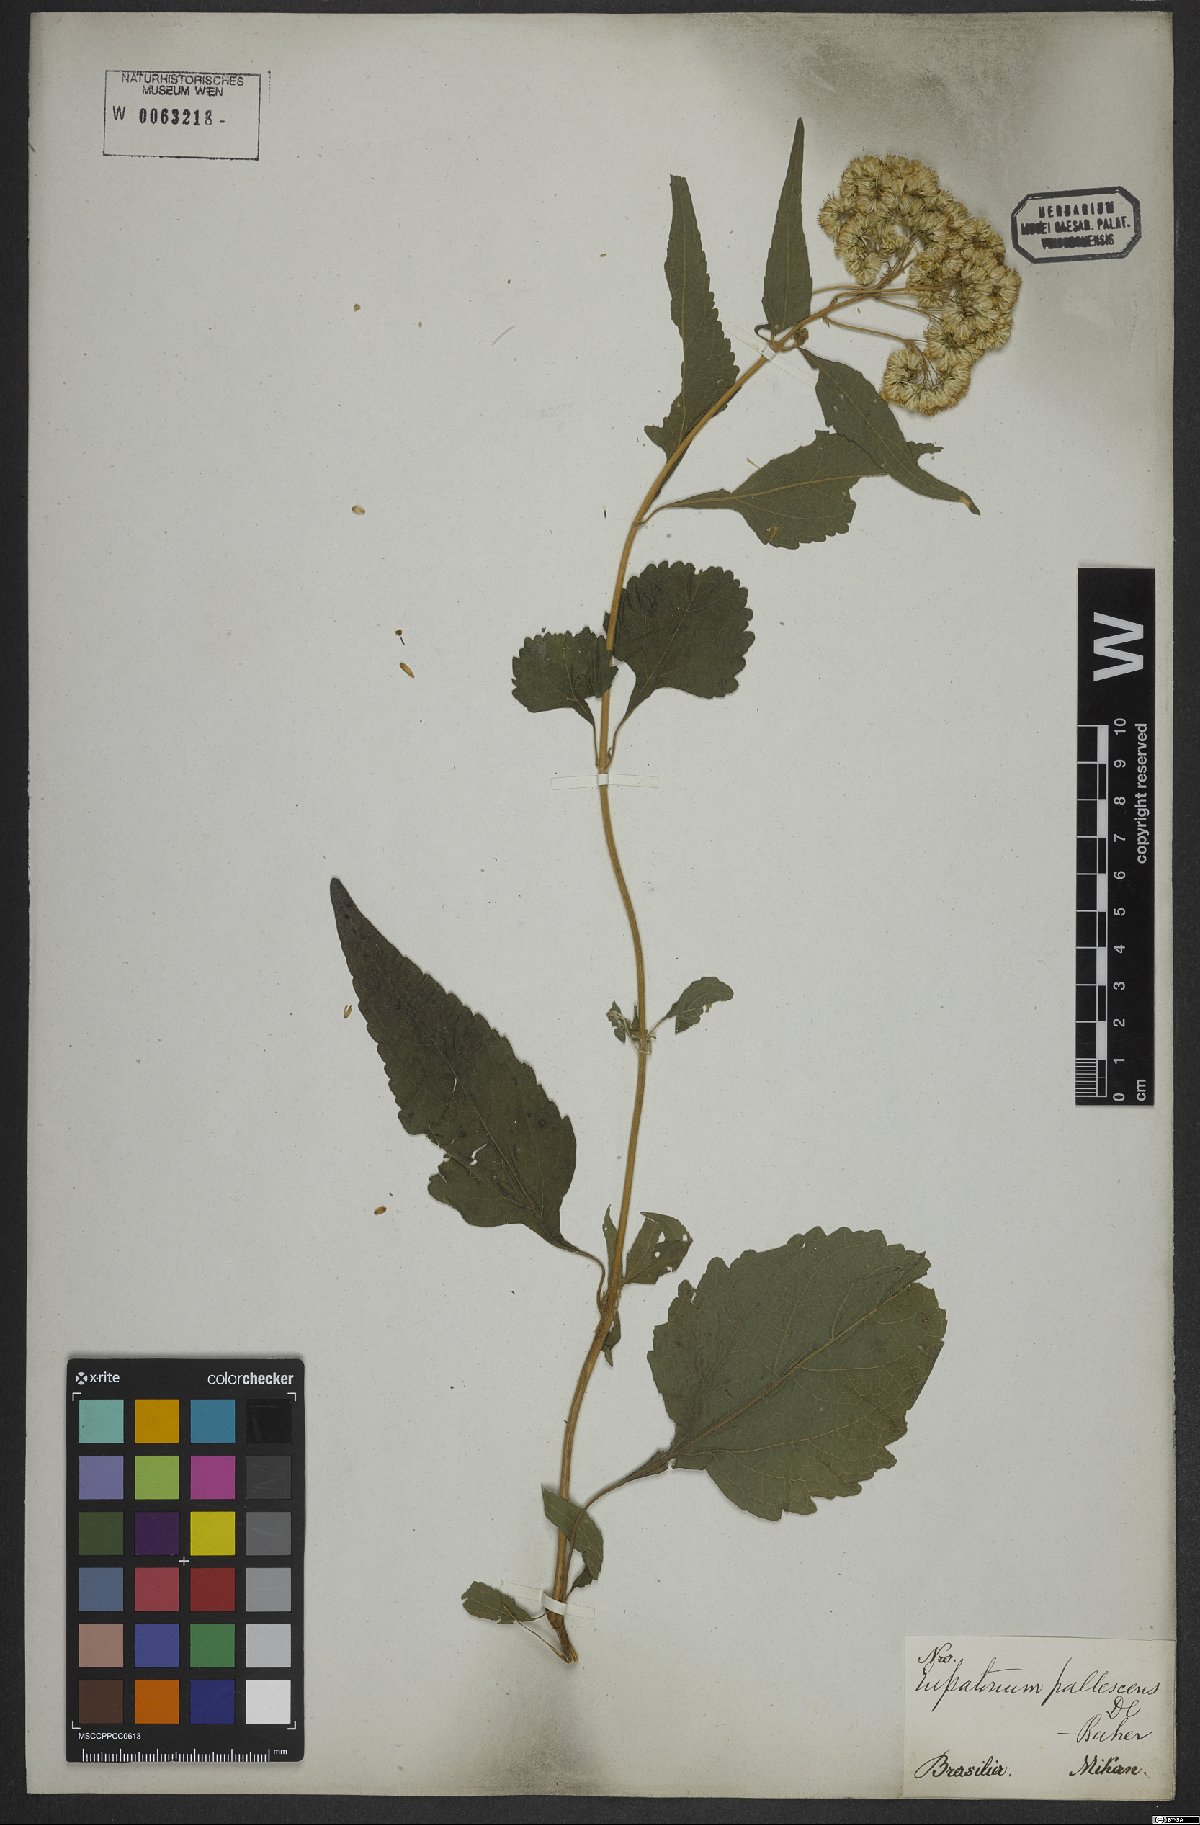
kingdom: Plantae
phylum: Tracheophyta
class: Magnoliopsida
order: Asterales
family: Asteraceae
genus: Austroeupatorium
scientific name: Austroeupatorium inulifolium
